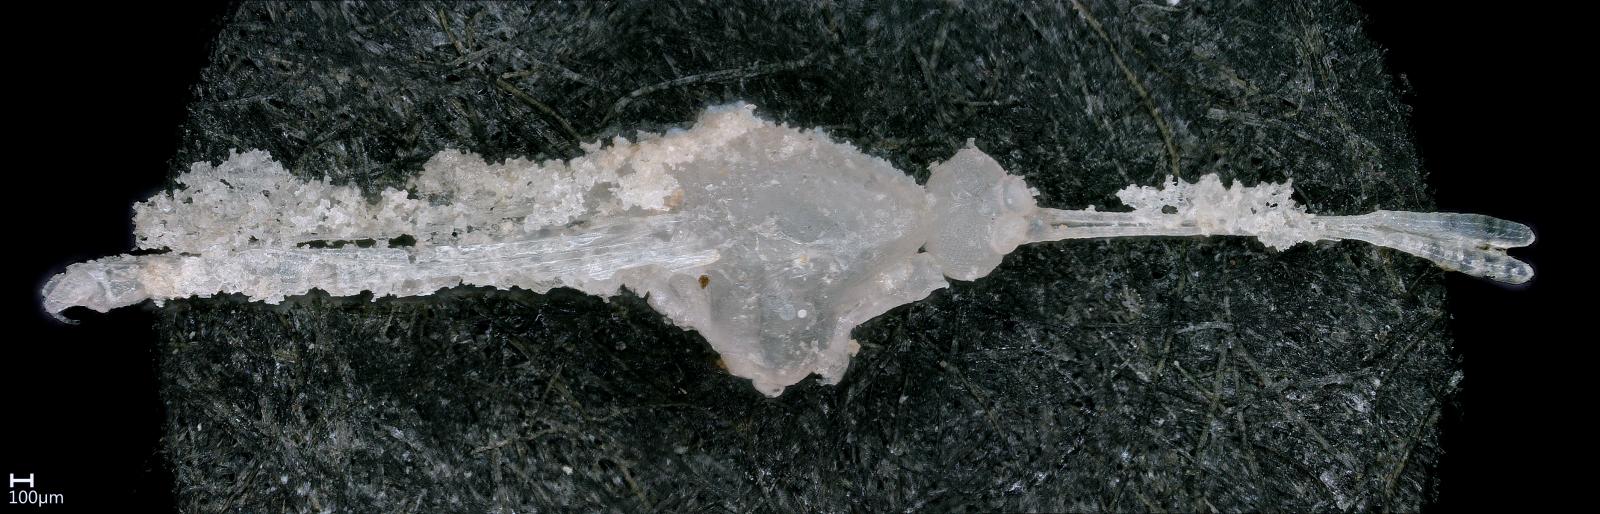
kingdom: Animalia
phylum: Arthropoda
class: Insecta
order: Diptera
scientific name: Diptera
